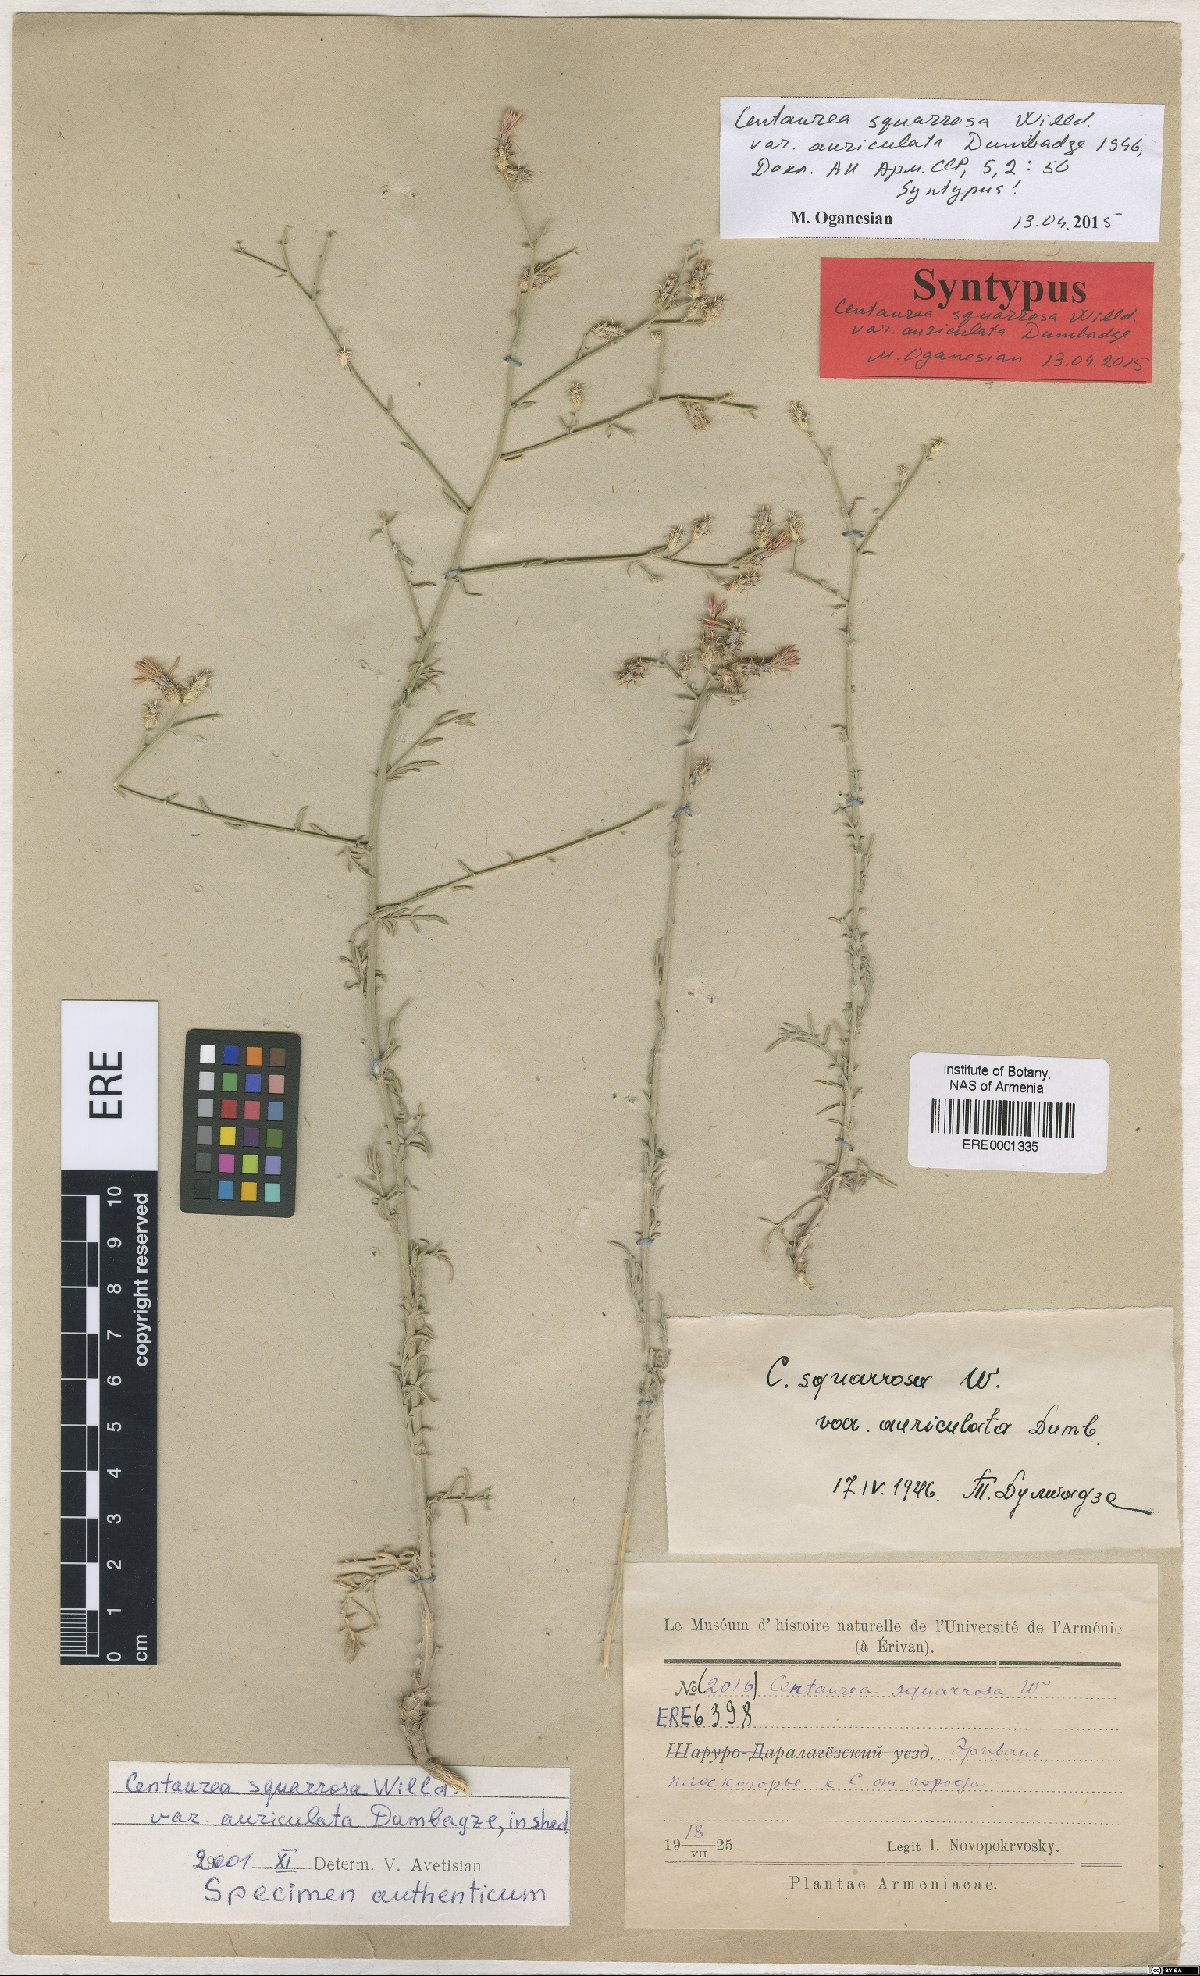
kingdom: Plantae
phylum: Tracheophyta
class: Magnoliopsida
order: Asterales
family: Asteraceae
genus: Centaurea
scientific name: Centaurea virgata
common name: Squarrose knapweed
